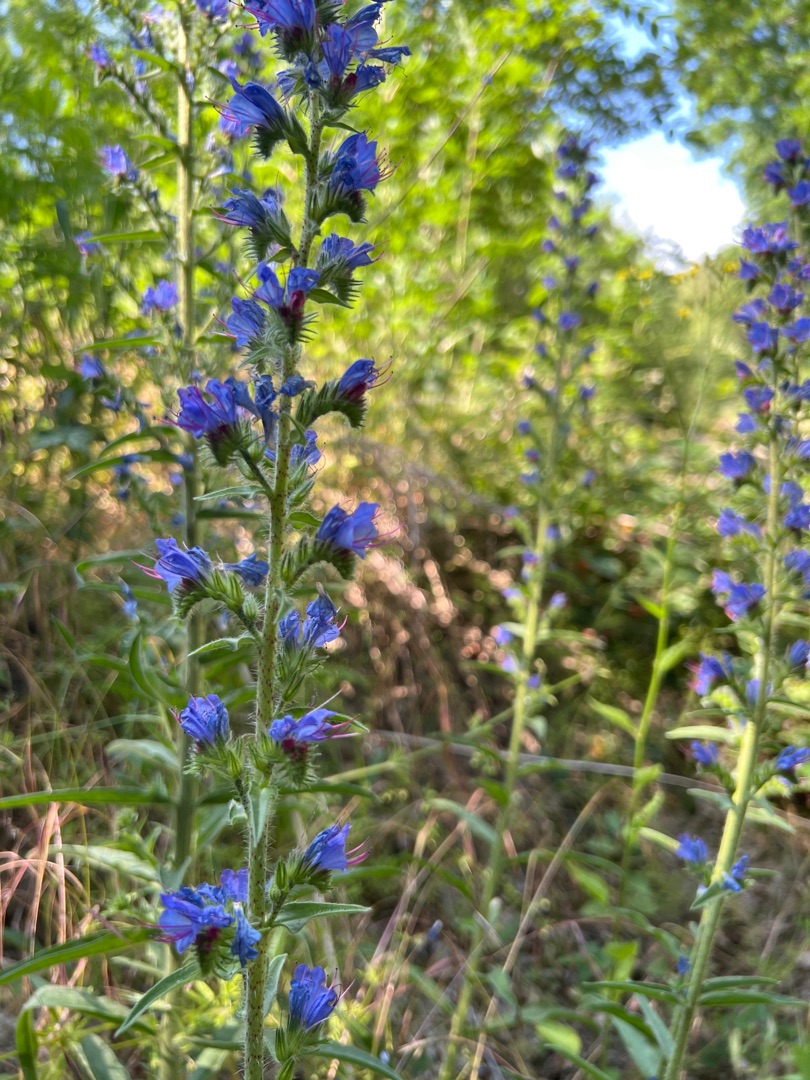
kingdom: Plantae
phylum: Tracheophyta
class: Magnoliopsida
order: Boraginales
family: Boraginaceae
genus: Echium
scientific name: Echium vulgare
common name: Slangehoved
